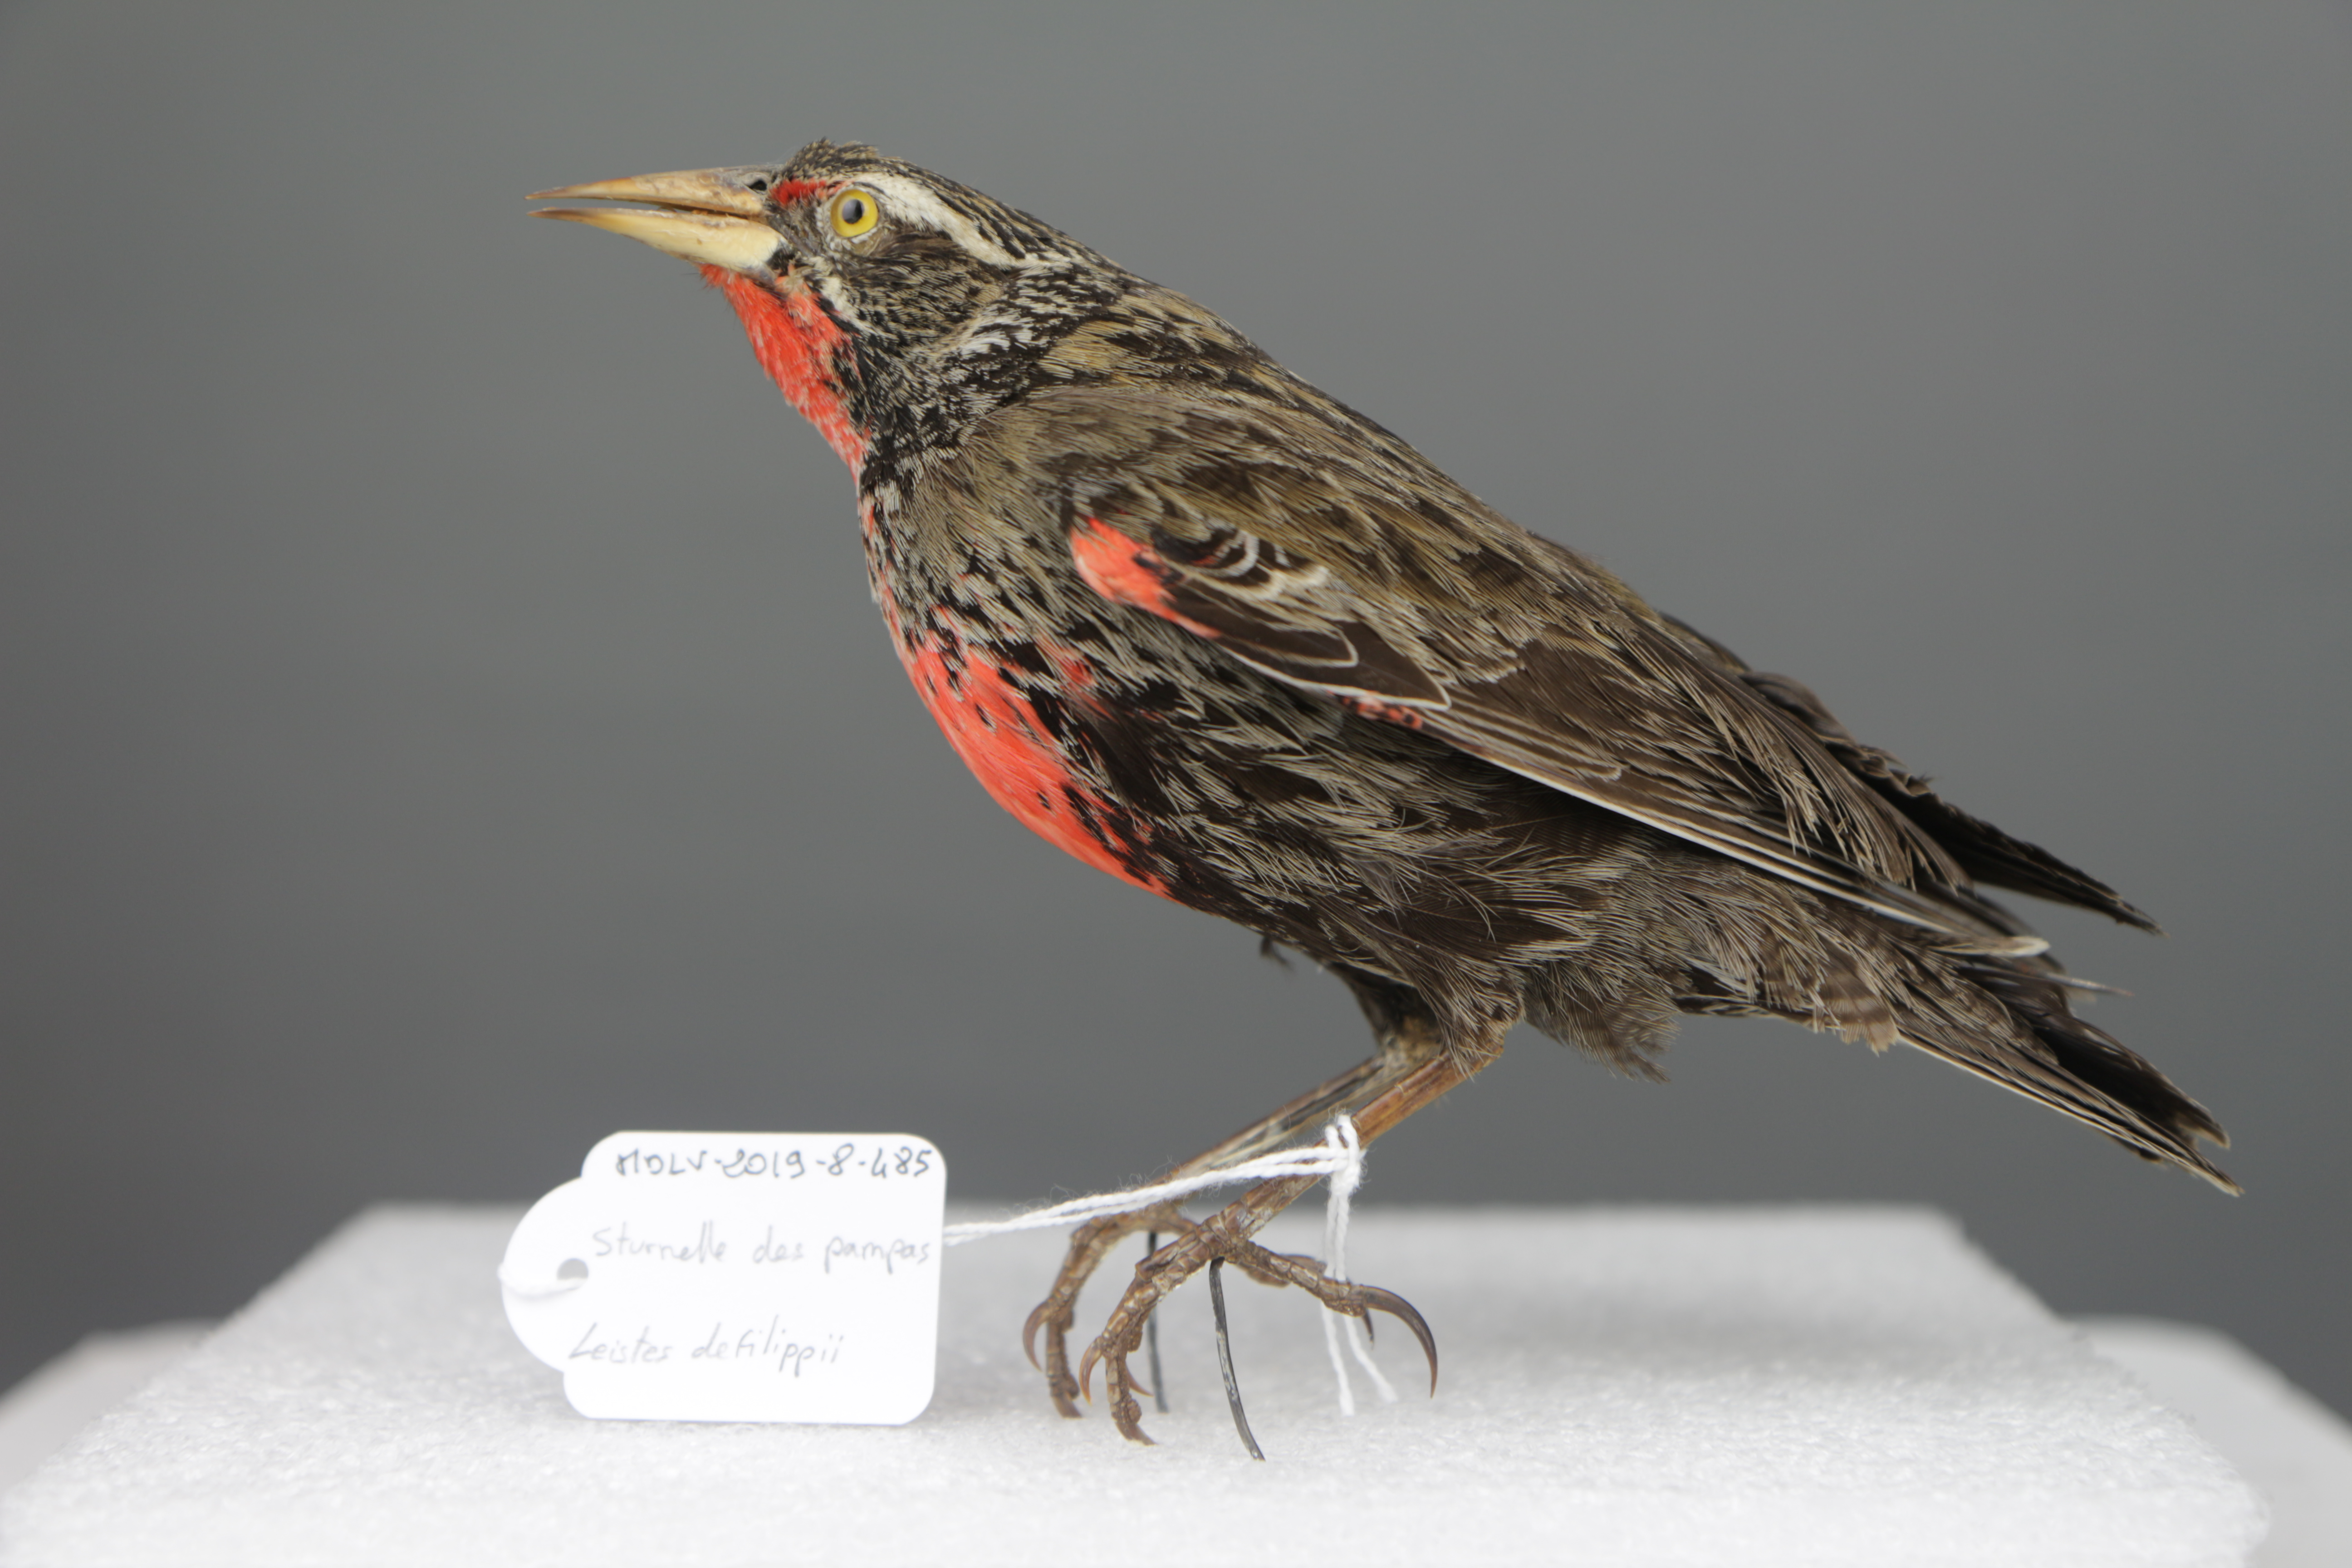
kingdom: Animalia
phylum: Chordata
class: Aves
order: Passeriformes
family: Icteridae
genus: Sturnella
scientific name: Sturnella defilippii
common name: Pampas meadowlark
